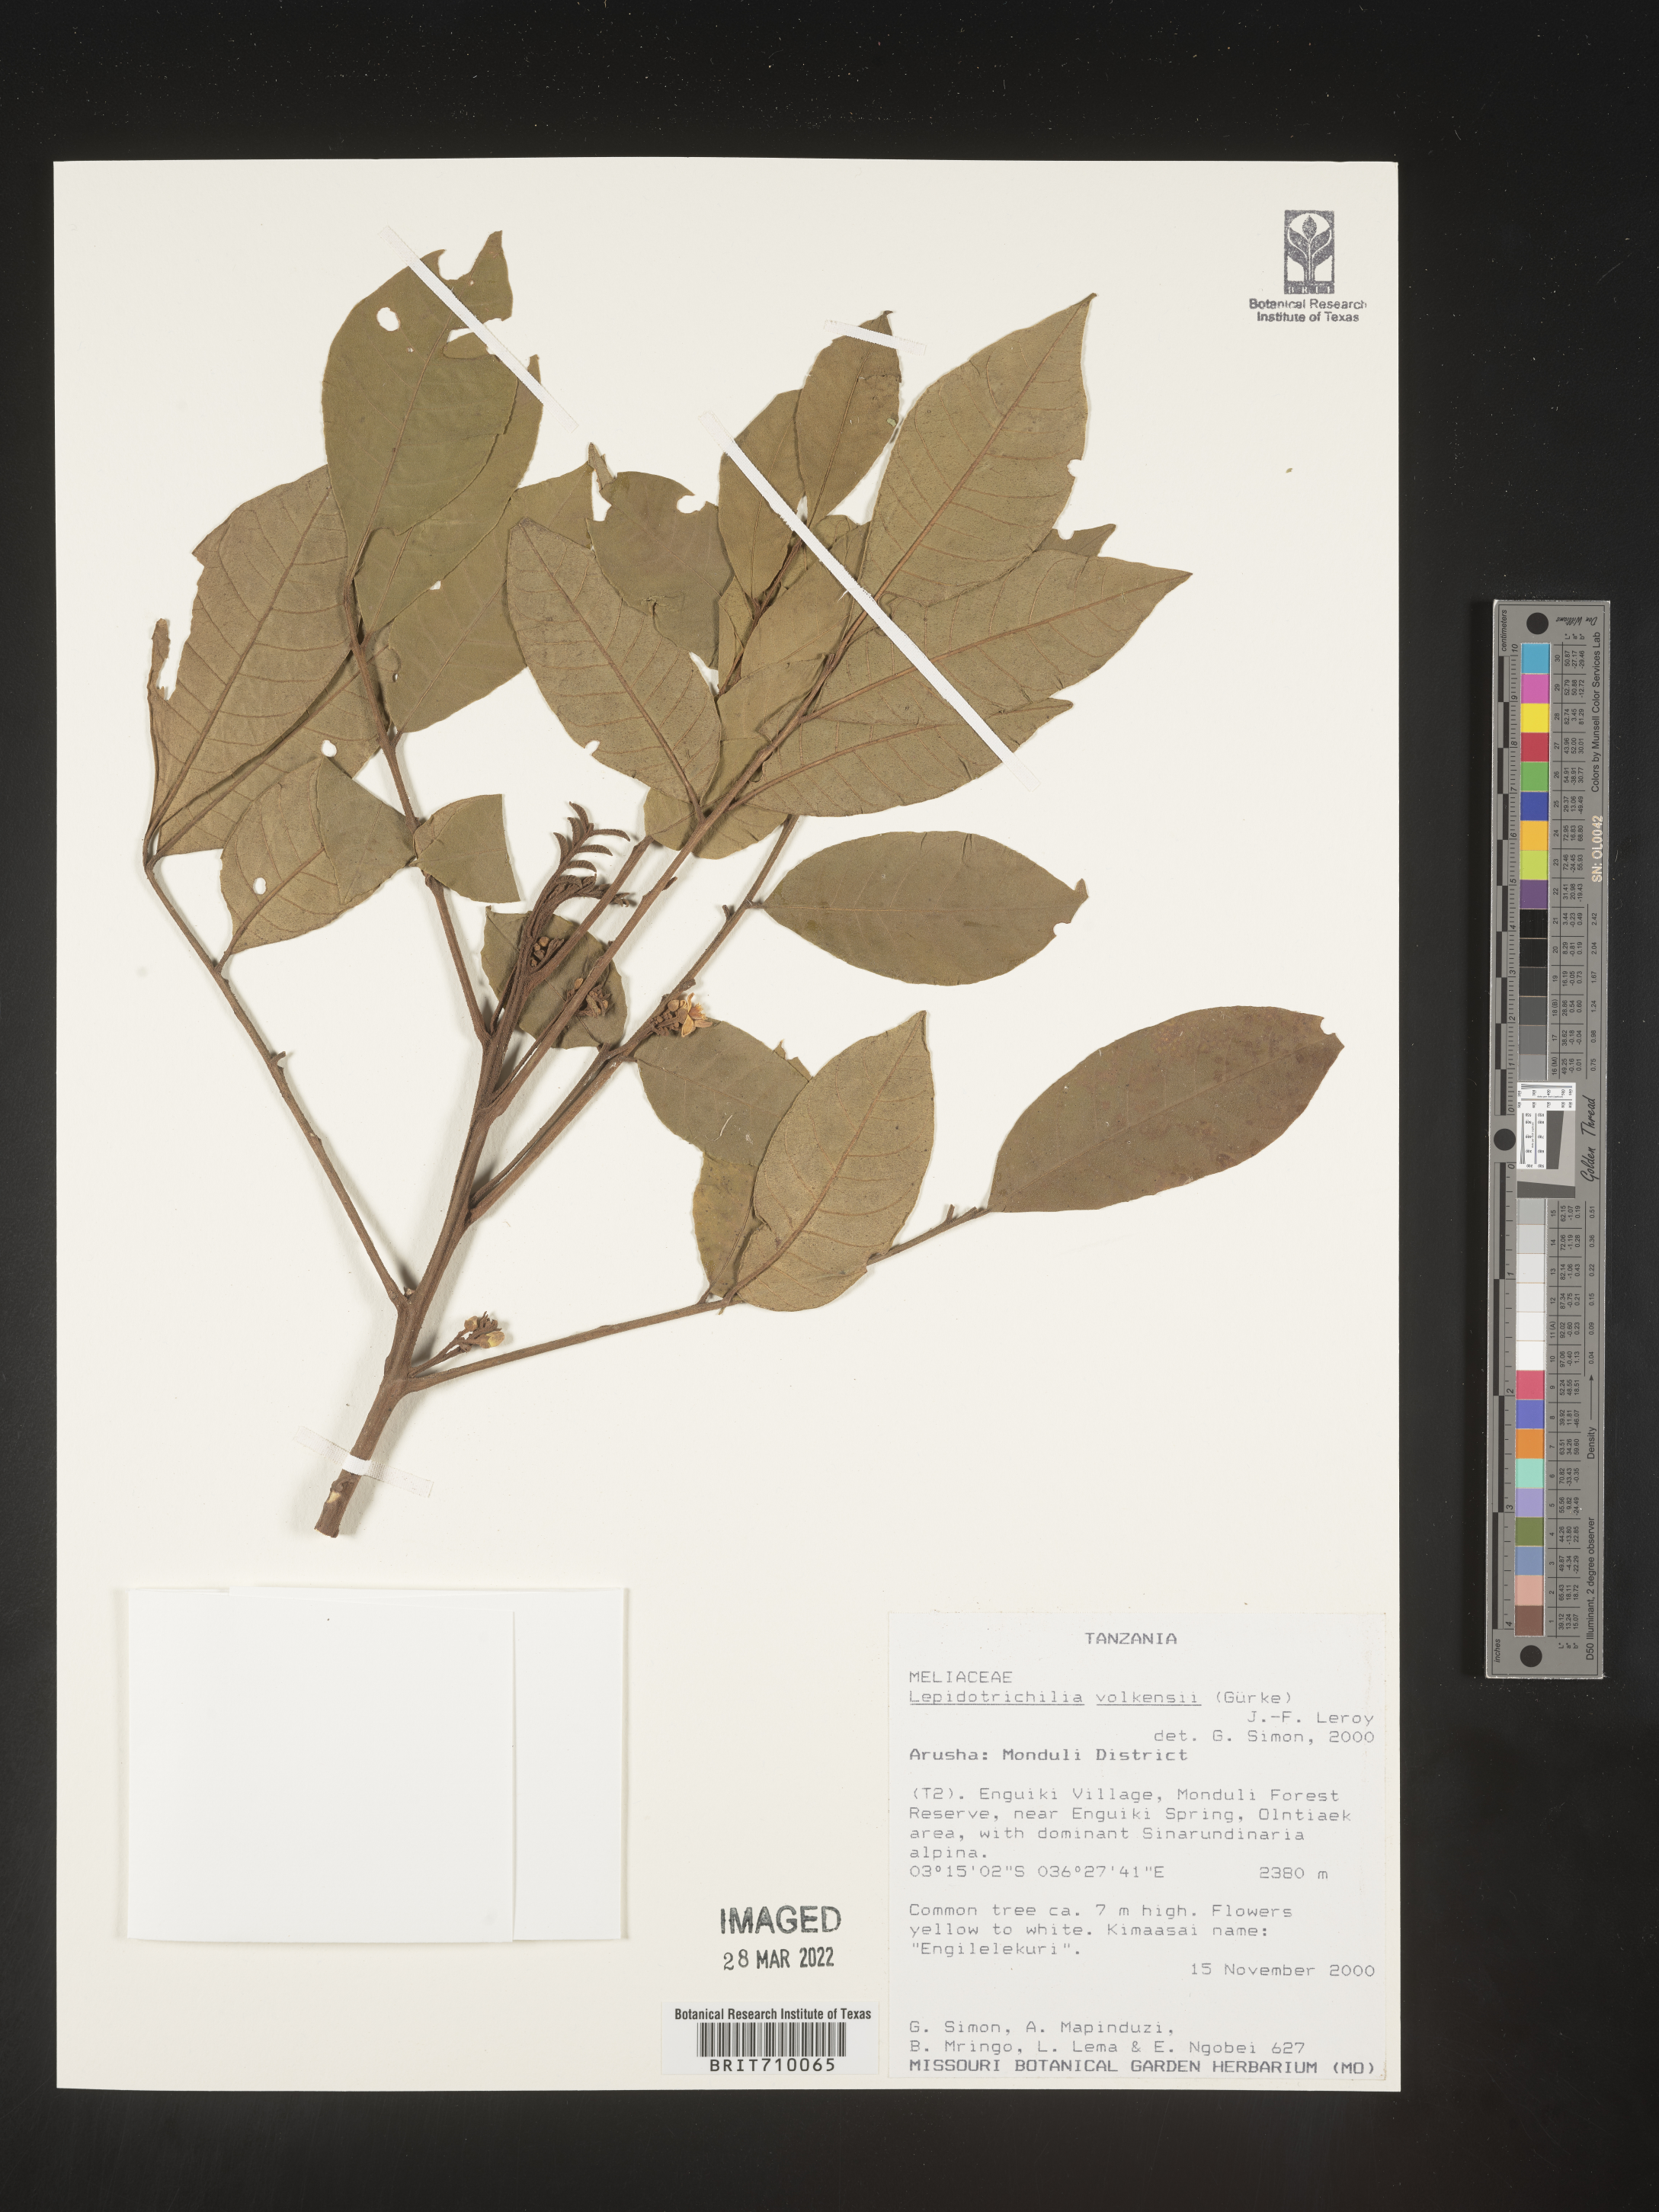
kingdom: Plantae
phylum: Tracheophyta
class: Magnoliopsida
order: Sapindales
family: Meliaceae
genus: Lepidotrichilia
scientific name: Lepidotrichilia
